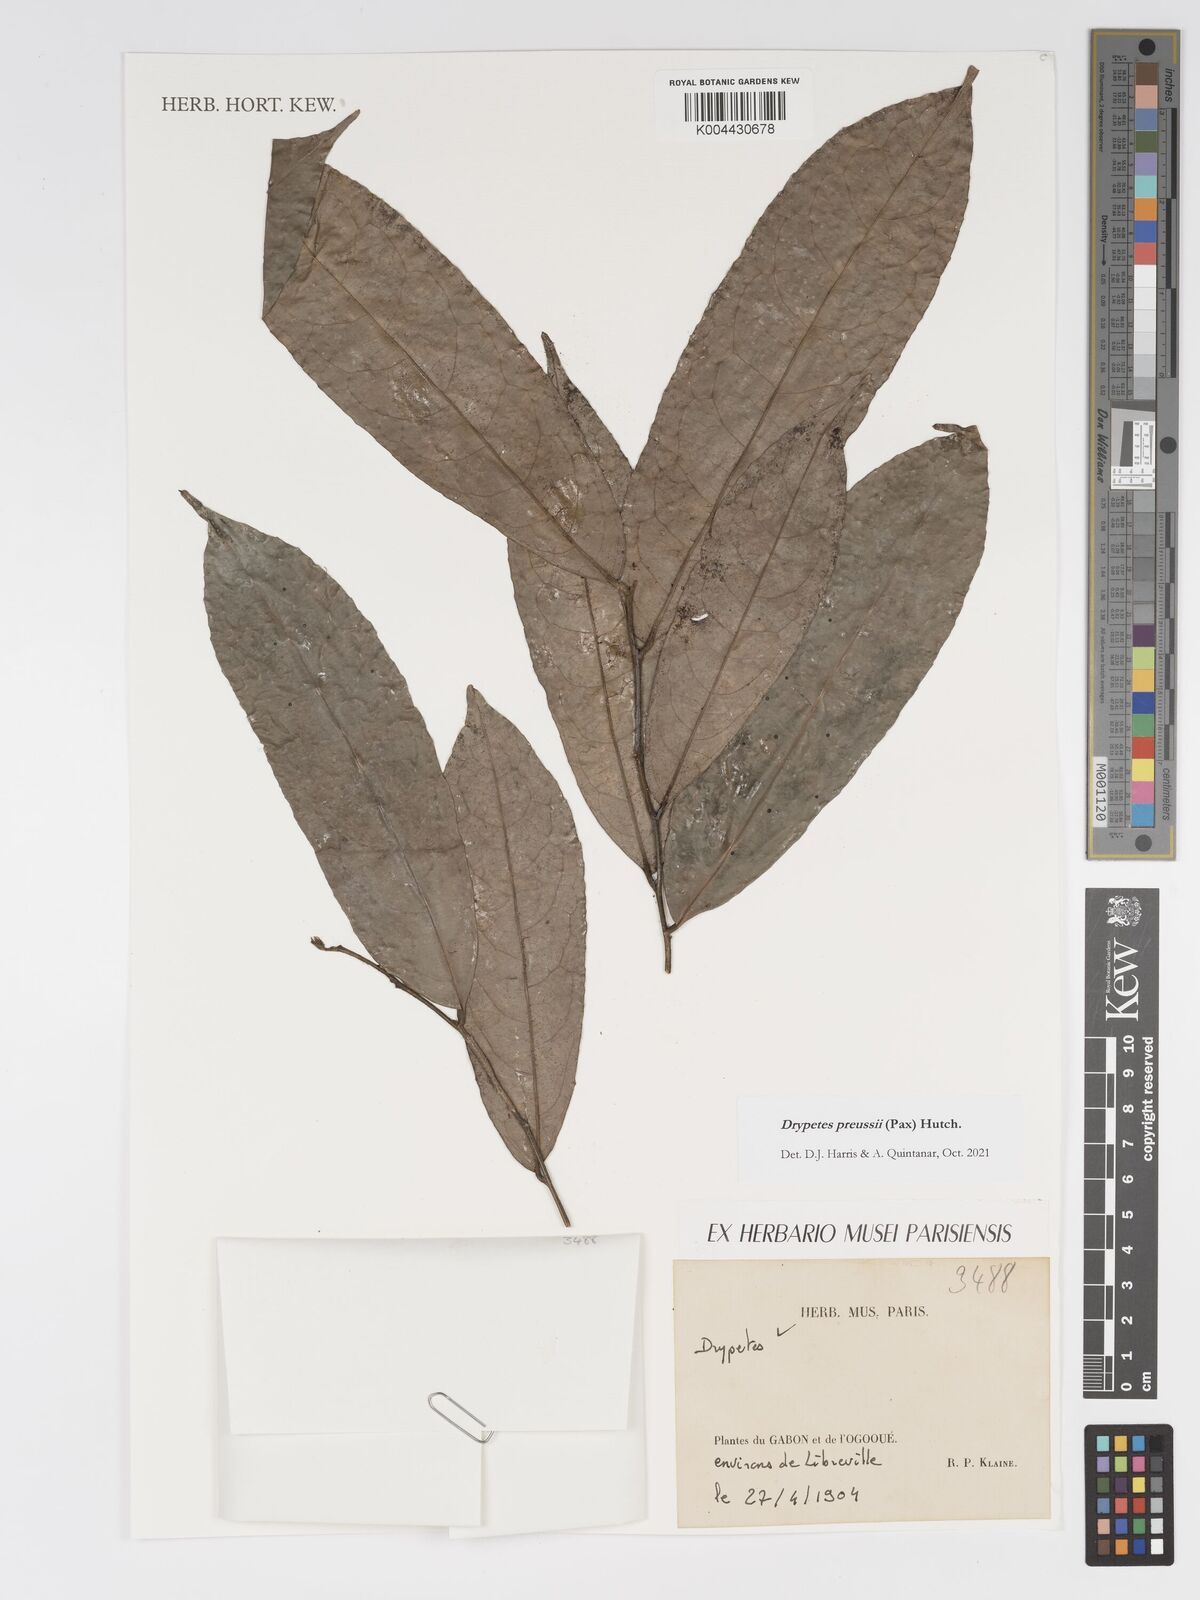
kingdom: Plantae
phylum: Tracheophyta
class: Magnoliopsida
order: Malpighiales
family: Putranjivaceae
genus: Drypetes
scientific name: Drypetes preussii
